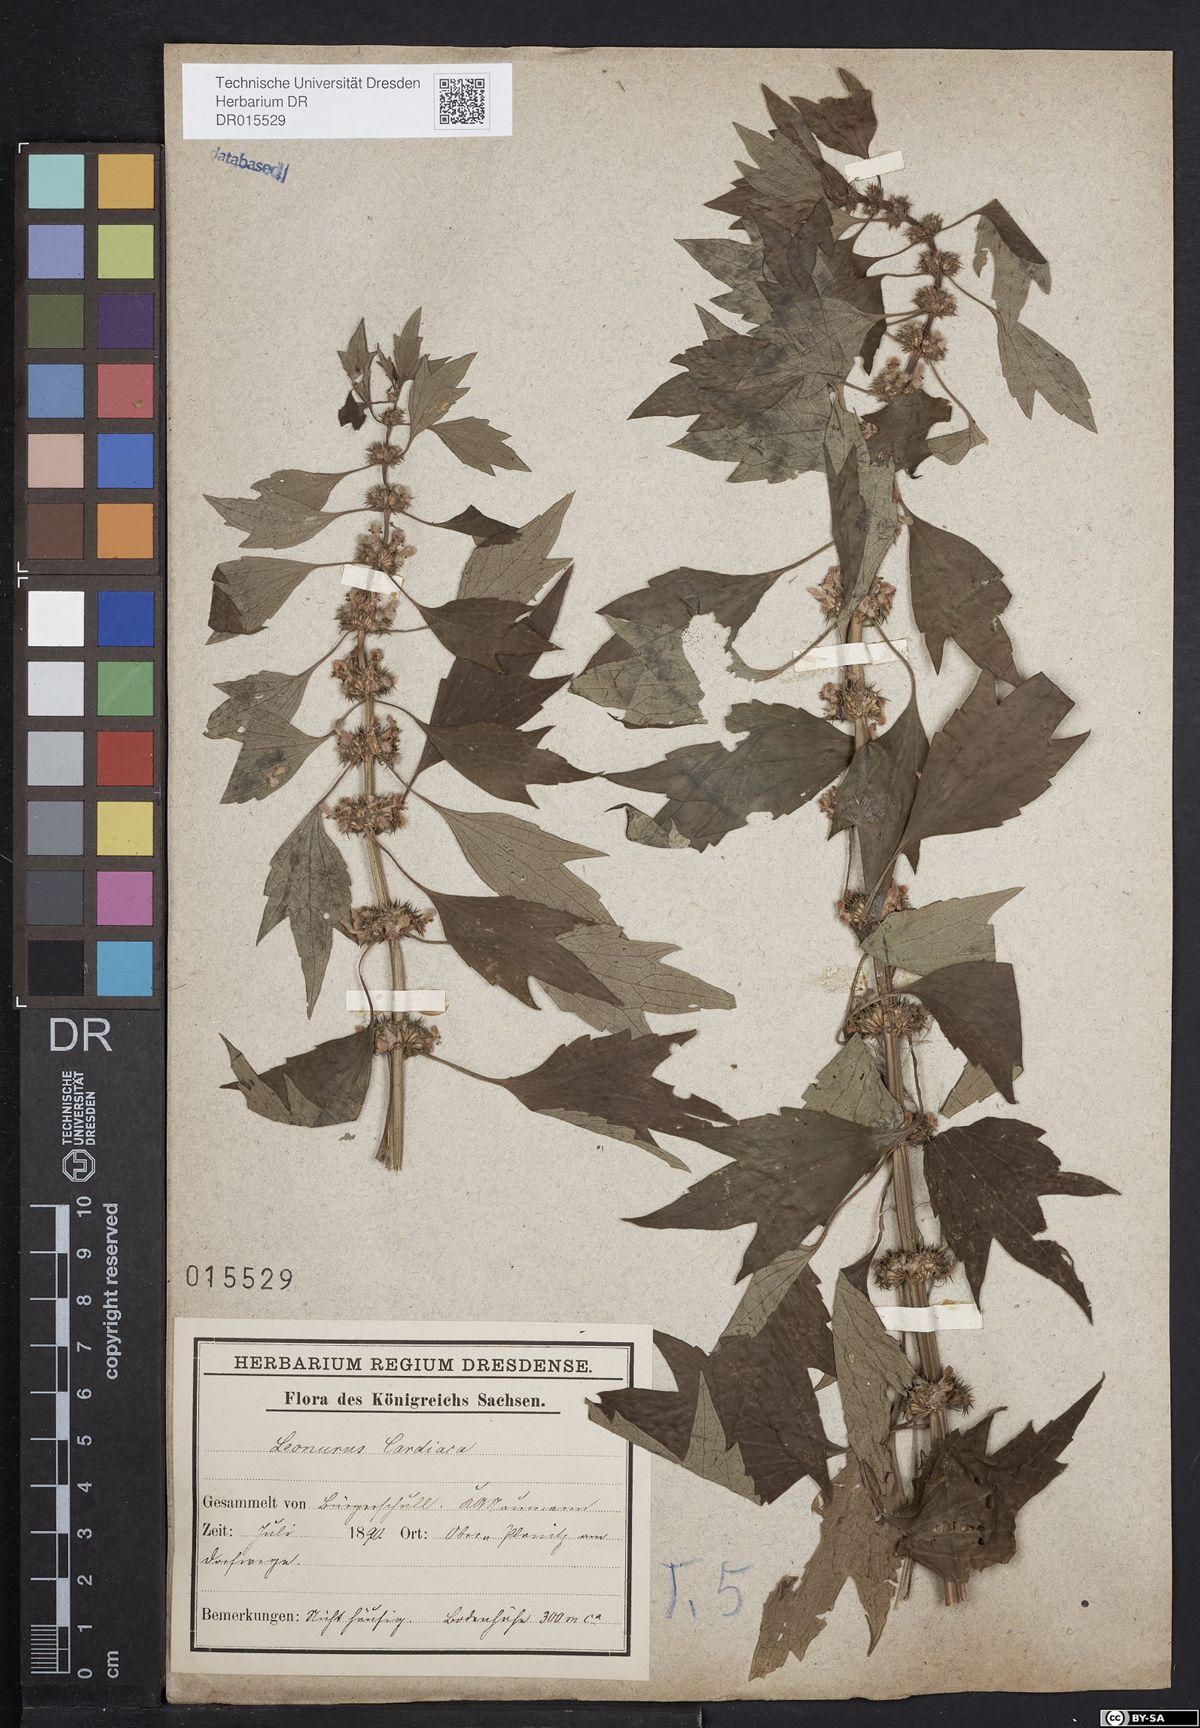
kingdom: Plantae
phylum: Tracheophyta
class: Magnoliopsida
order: Lamiales
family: Lamiaceae
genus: Leonurus
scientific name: Leonurus cardiaca
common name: Motherwort
